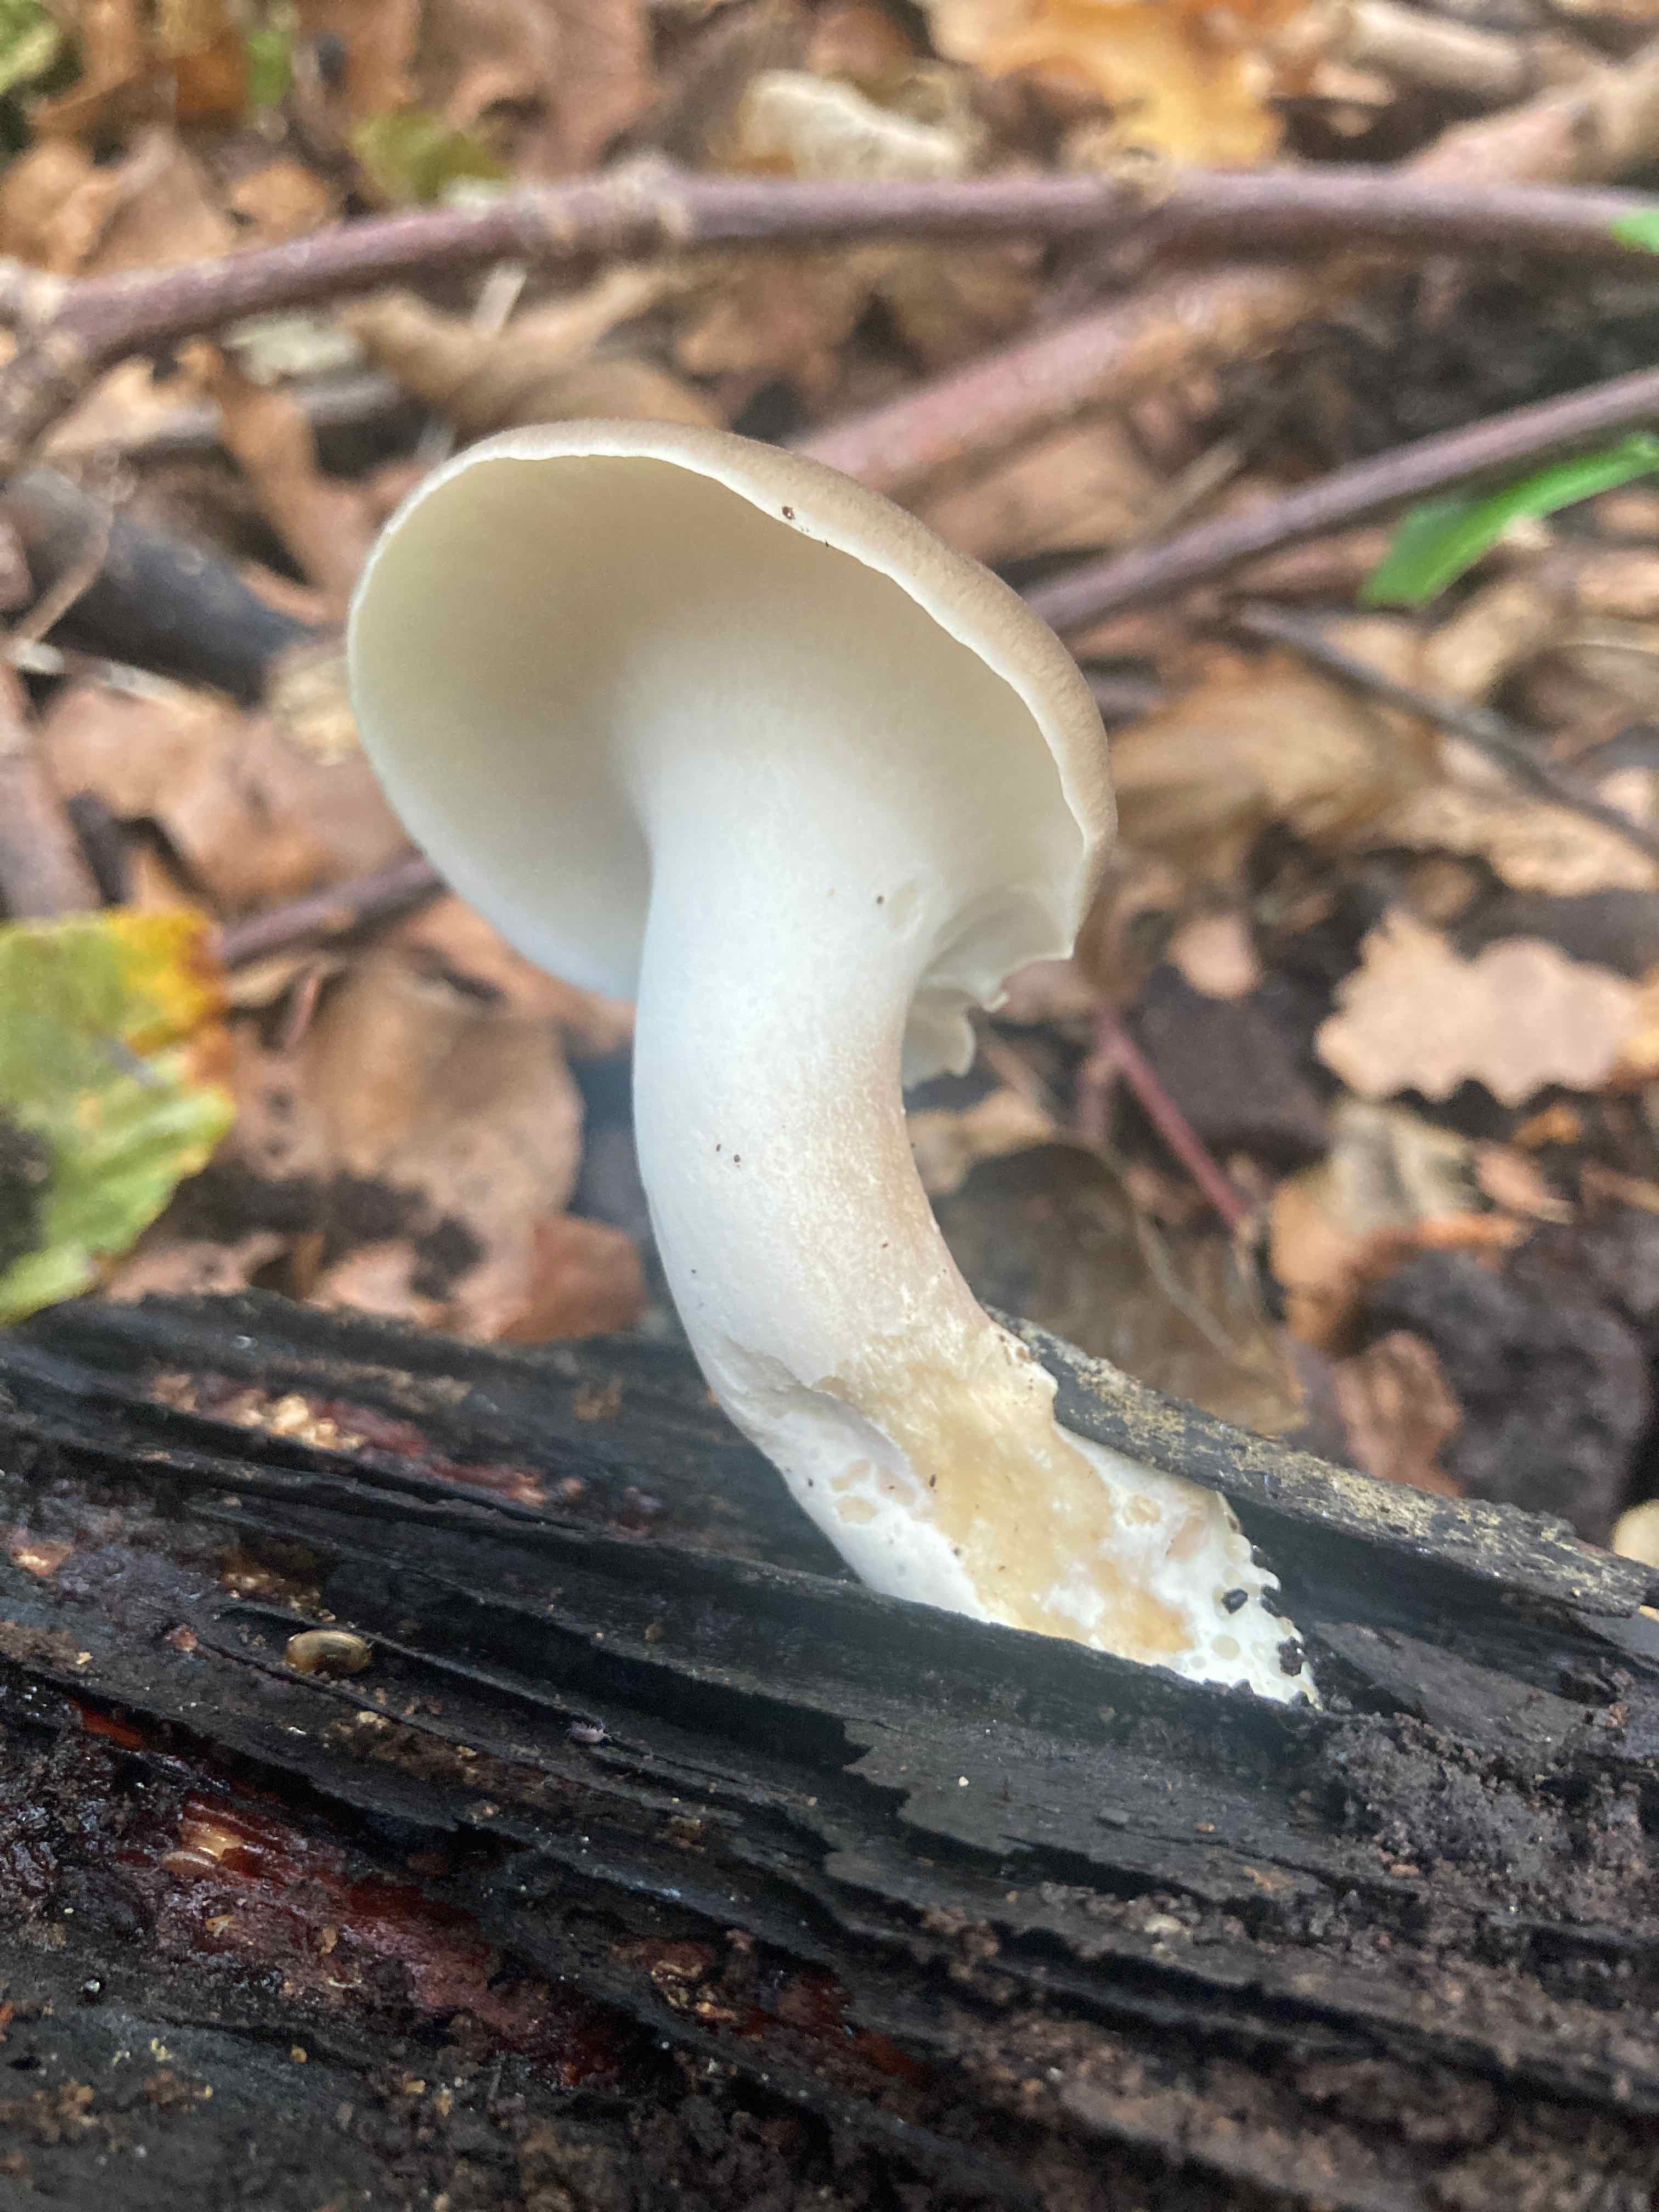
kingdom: Fungi
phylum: Basidiomycota
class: Agaricomycetes
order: Polyporales
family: Polyporaceae
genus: Picipes
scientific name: Picipes badius
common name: kastaniebrun stilkporesvamp
